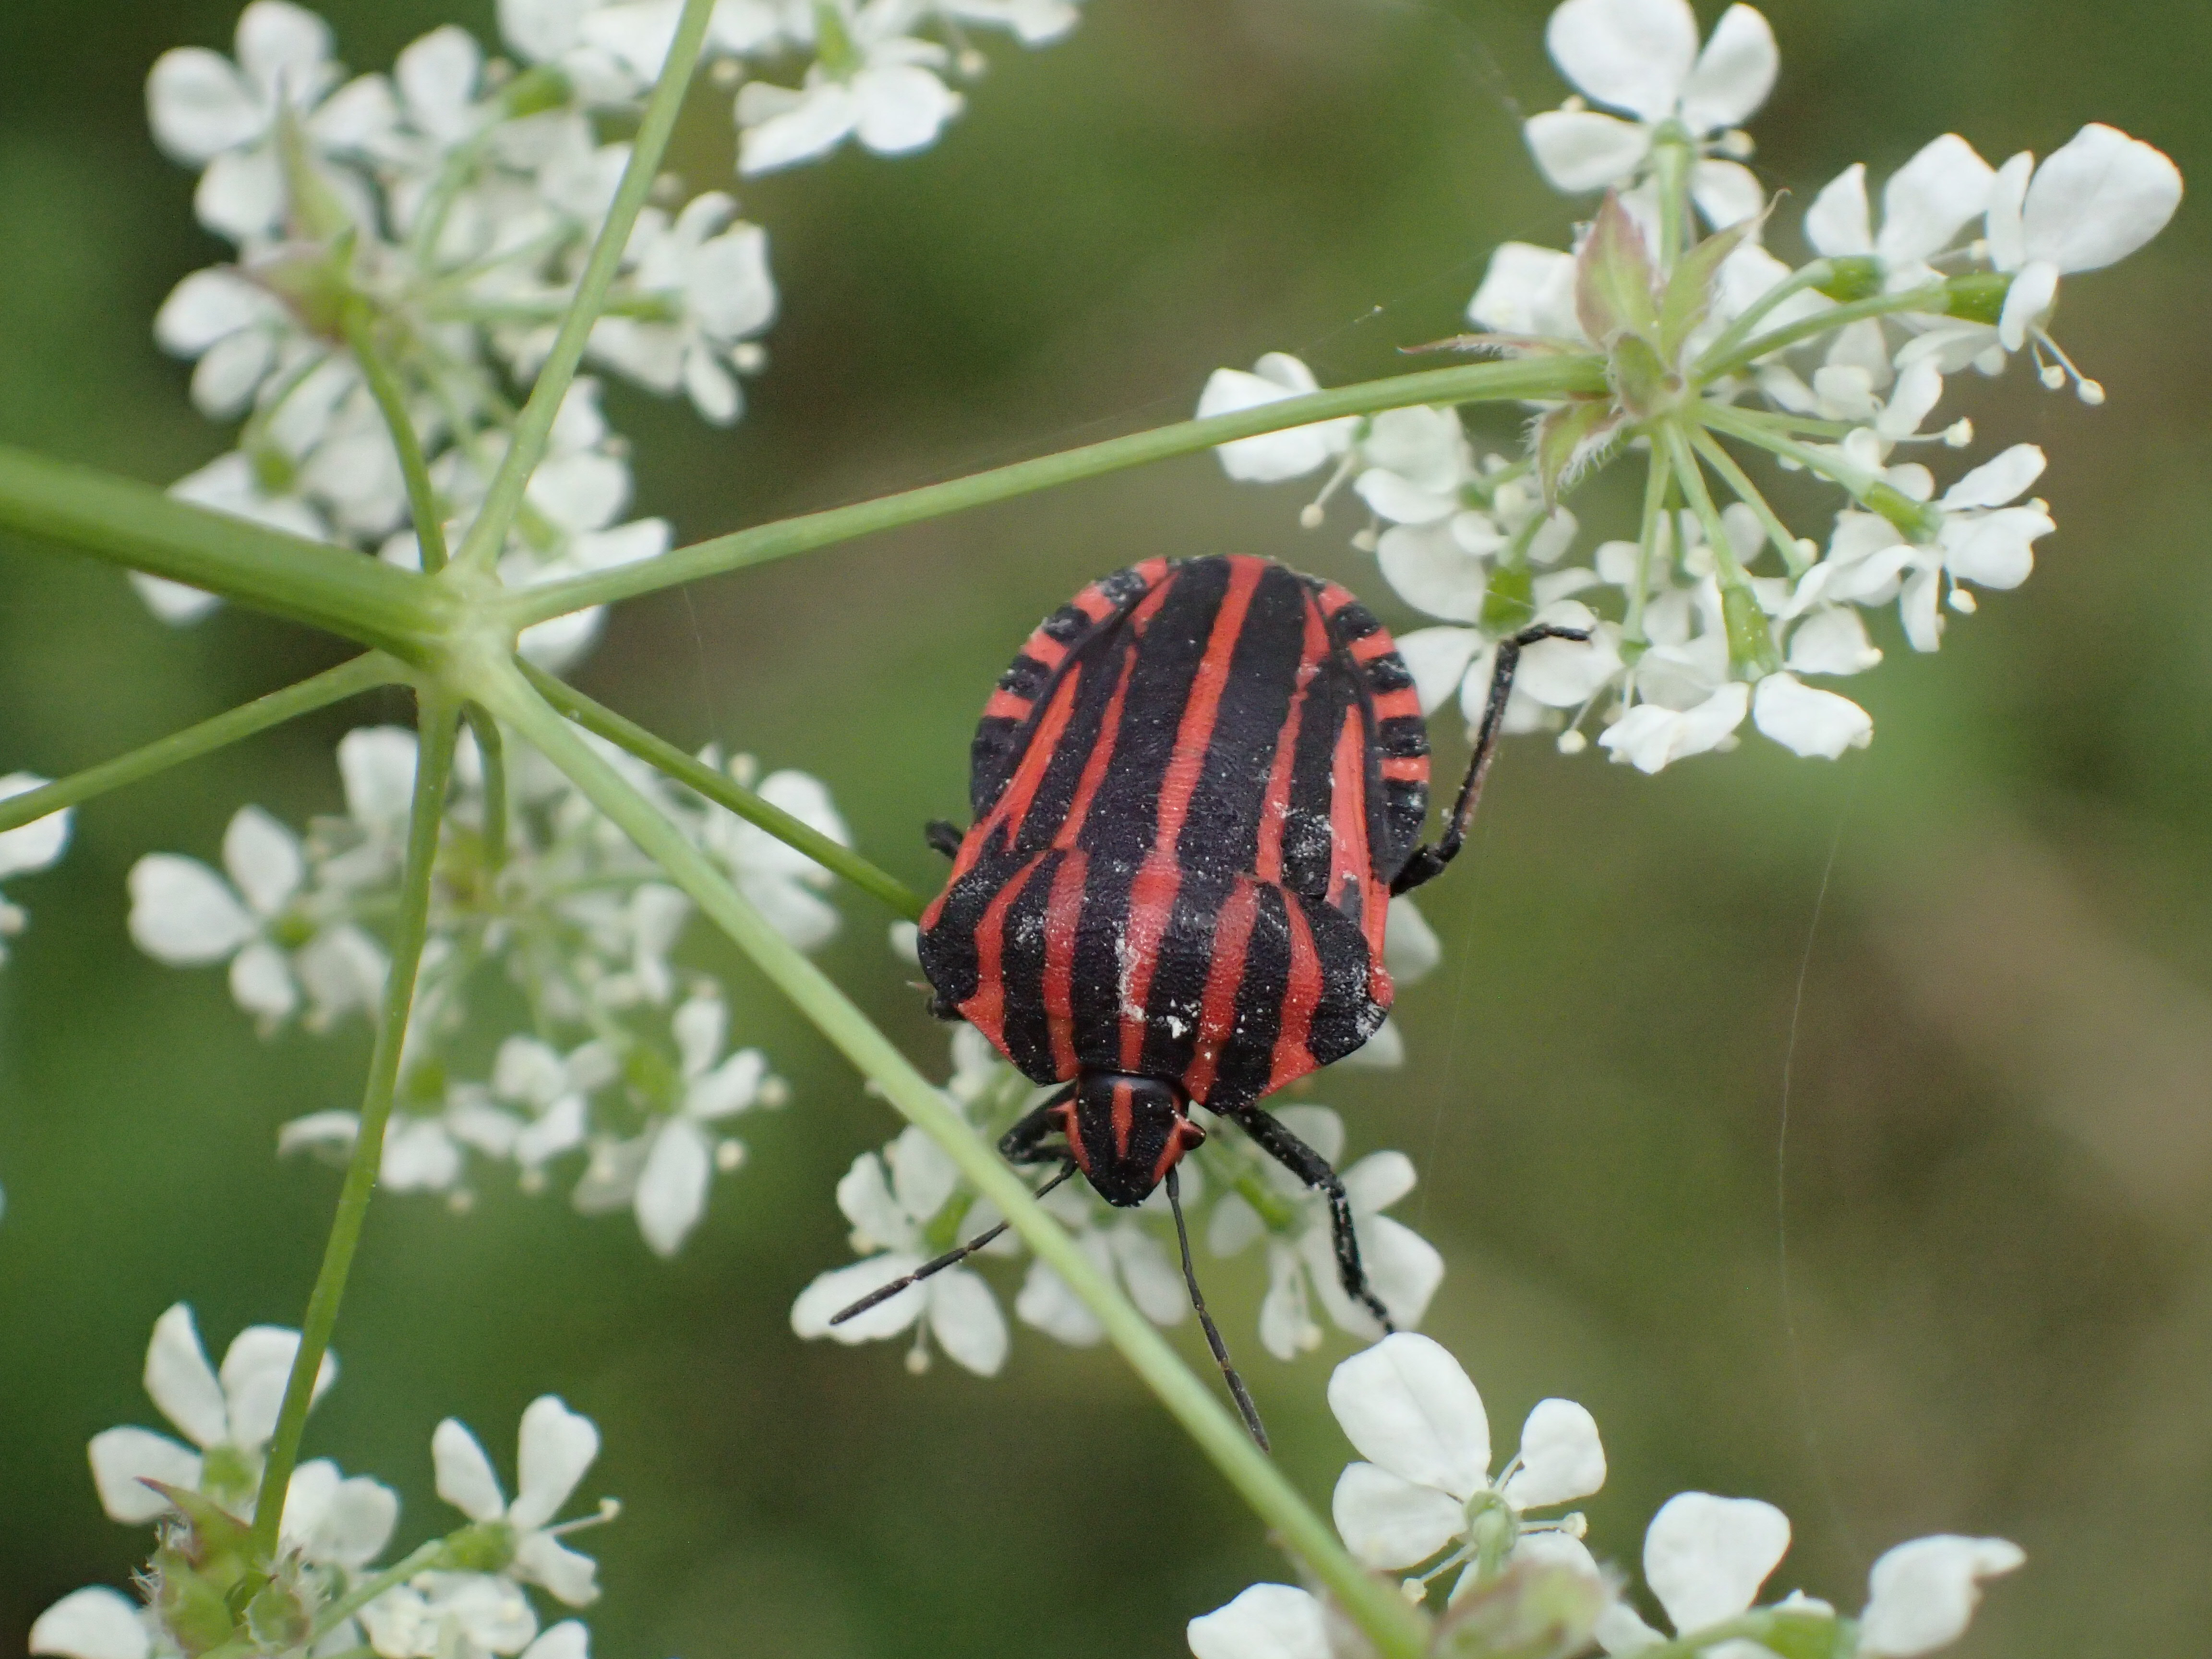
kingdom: Animalia
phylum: Arthropoda
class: Insecta
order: Hemiptera
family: Pentatomidae
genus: Graphosoma
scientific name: Graphosoma italicum
